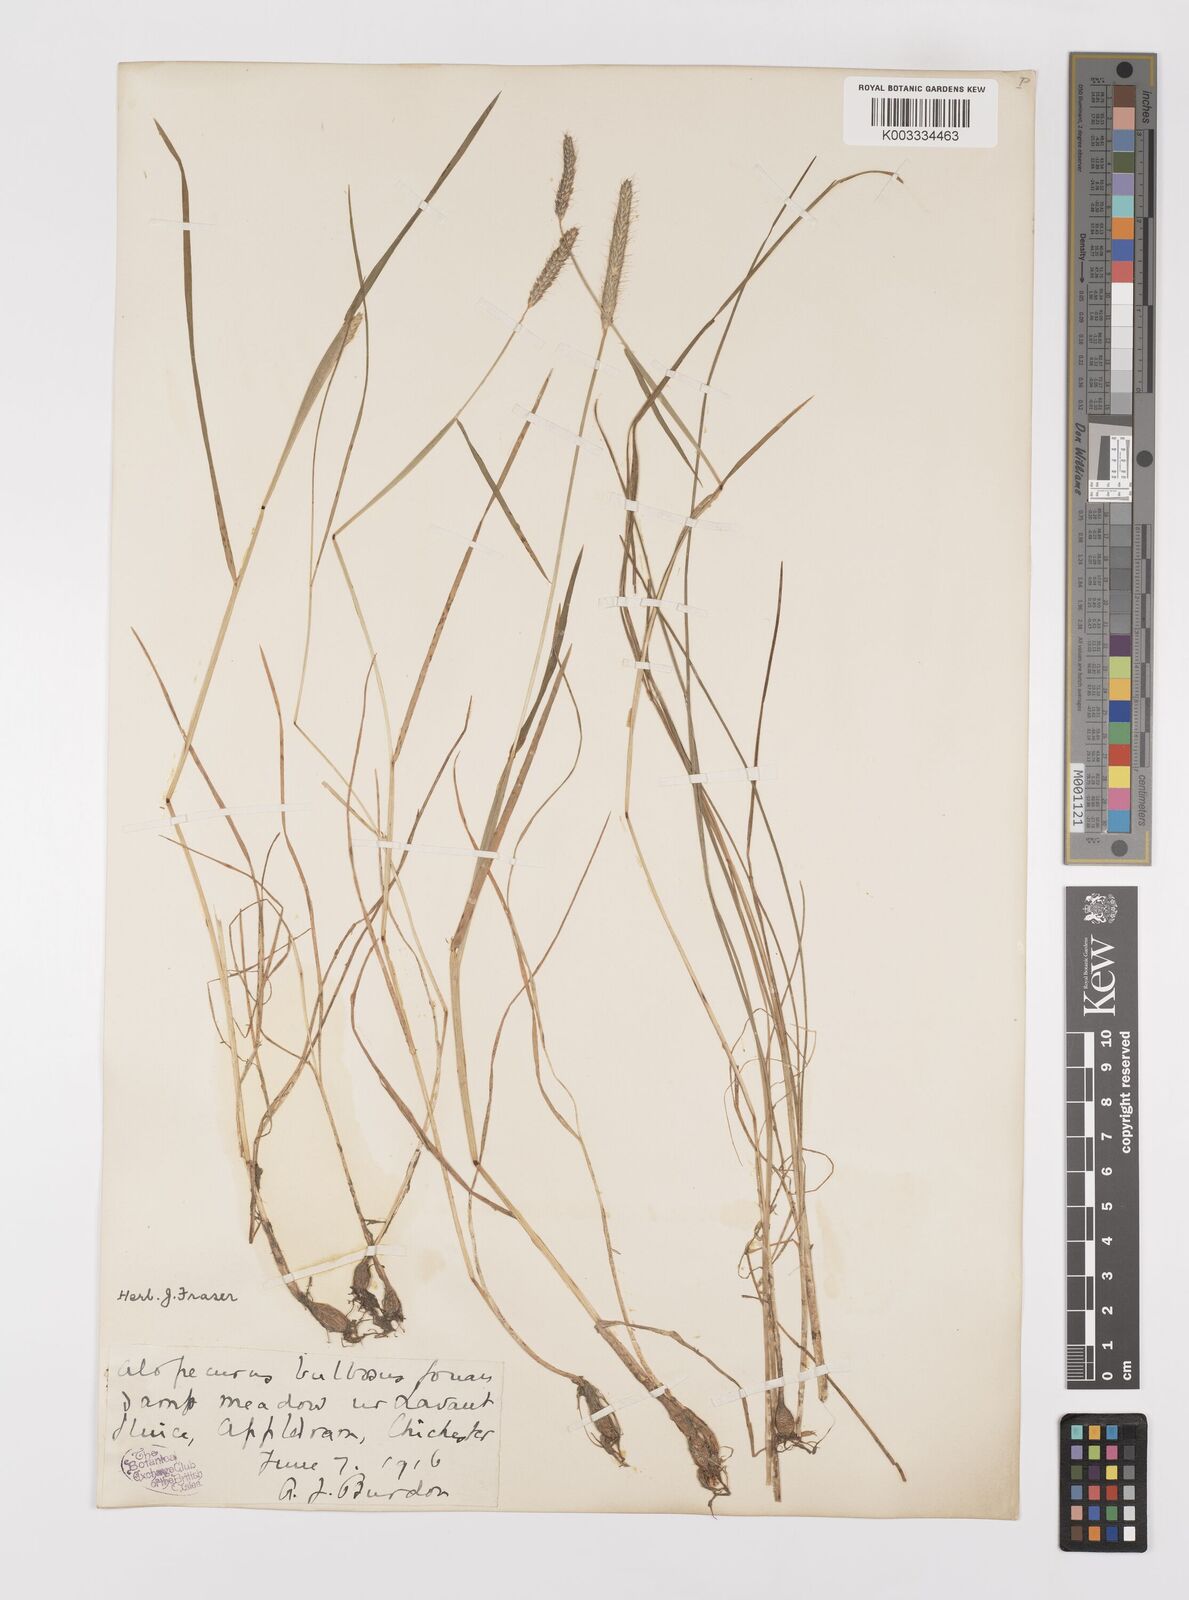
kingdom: Plantae
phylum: Tracheophyta
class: Liliopsida
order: Poales
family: Poaceae
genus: Alopecurus
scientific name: Alopecurus bulbosus
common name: Bulbous foxtail
